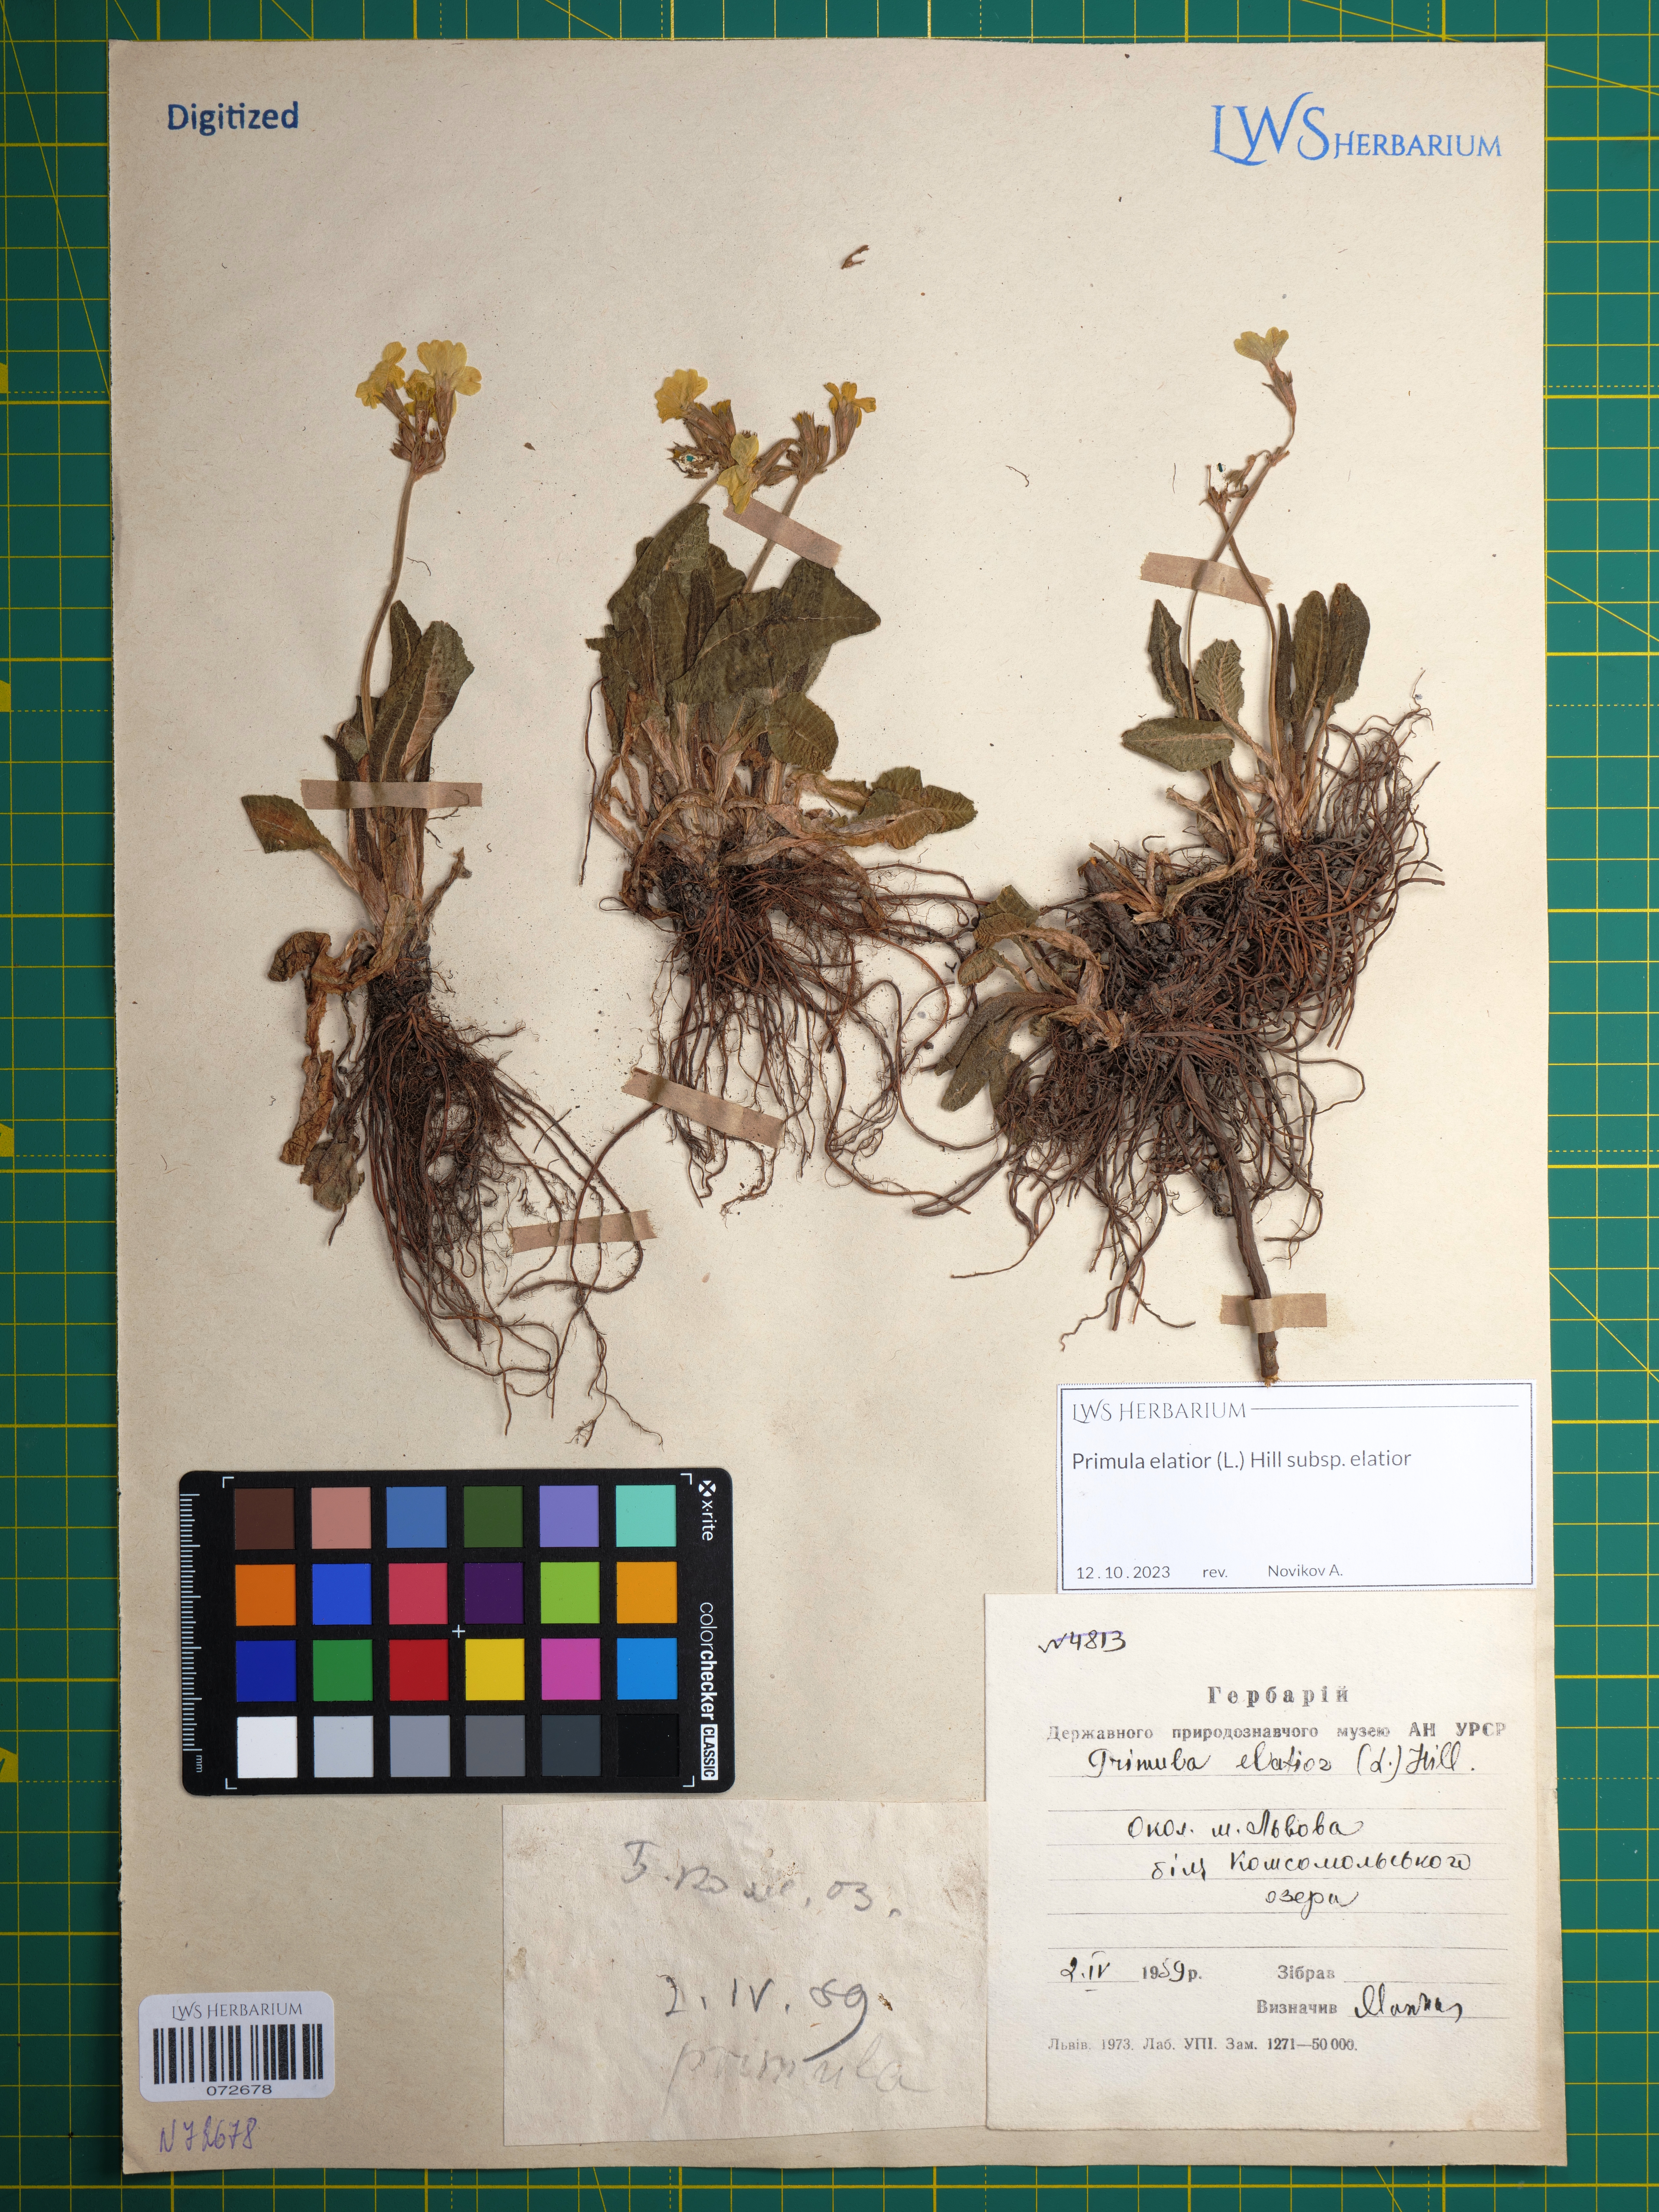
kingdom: Plantae
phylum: Tracheophyta
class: Magnoliopsida
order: Ericales
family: Primulaceae
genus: Primula
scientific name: Primula elatior
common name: Oxlip
